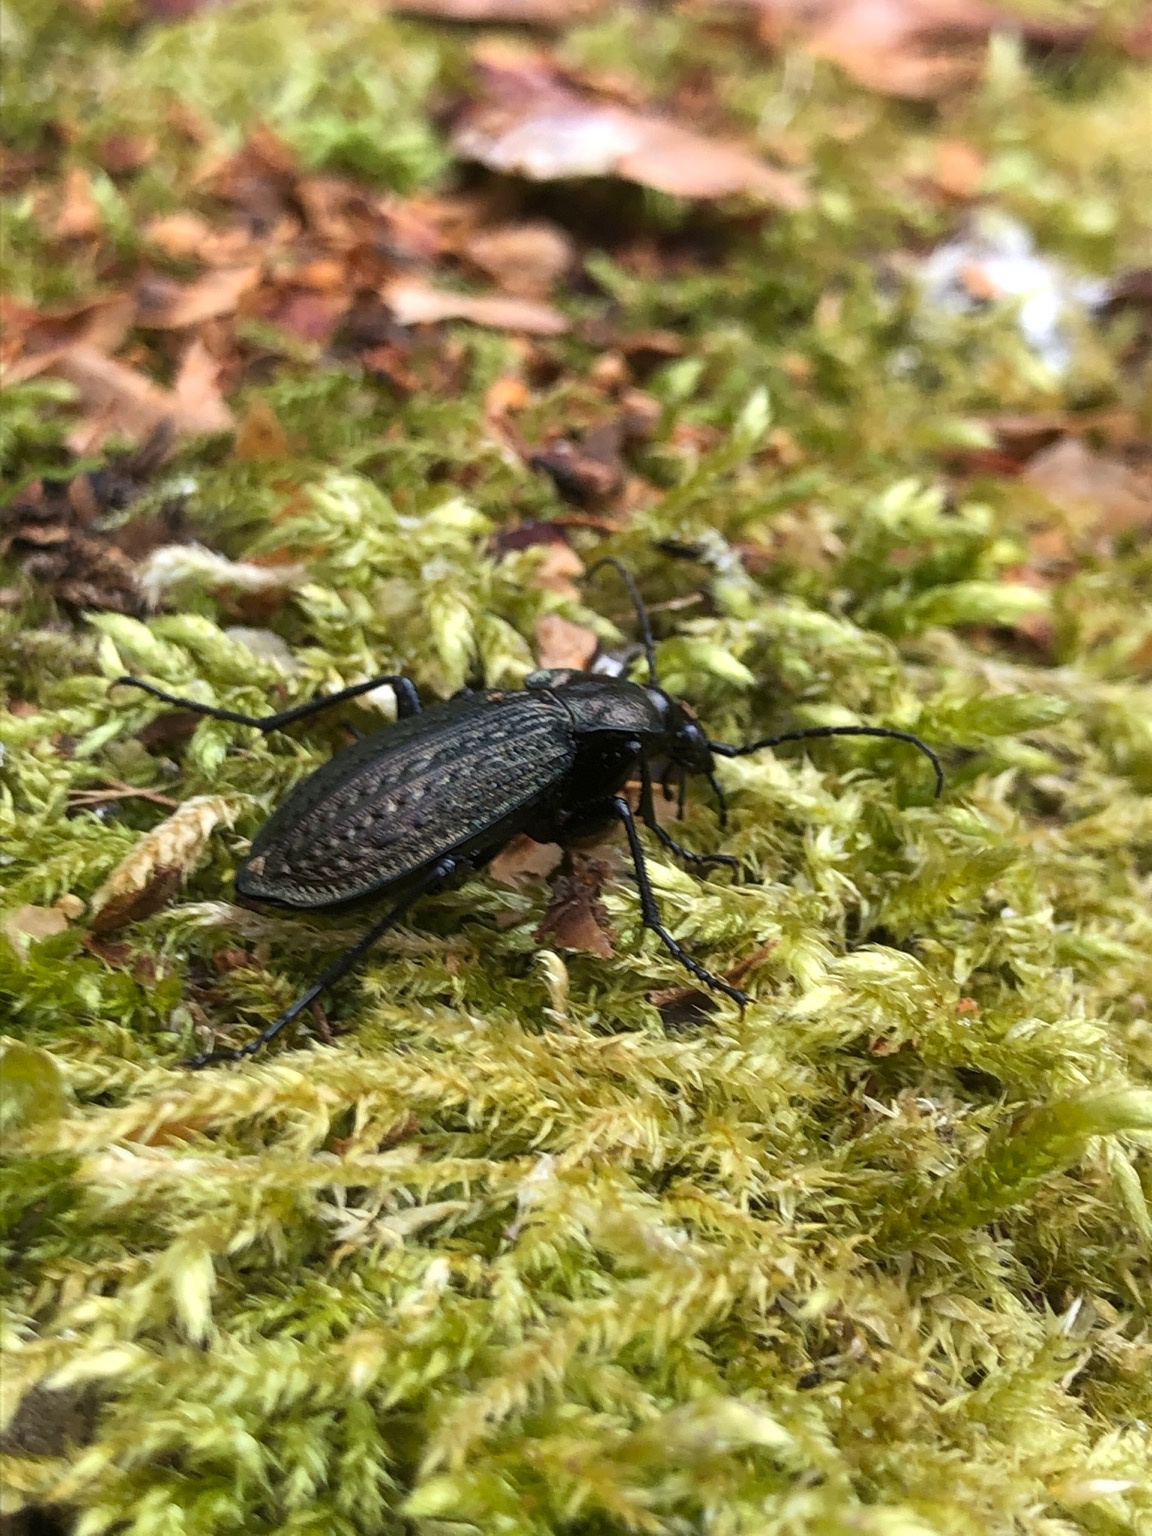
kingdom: Animalia
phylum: Arthropoda
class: Insecta
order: Coleoptera
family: Carabidae
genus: Carabus
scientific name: Carabus granulatus
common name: Kornet løber
